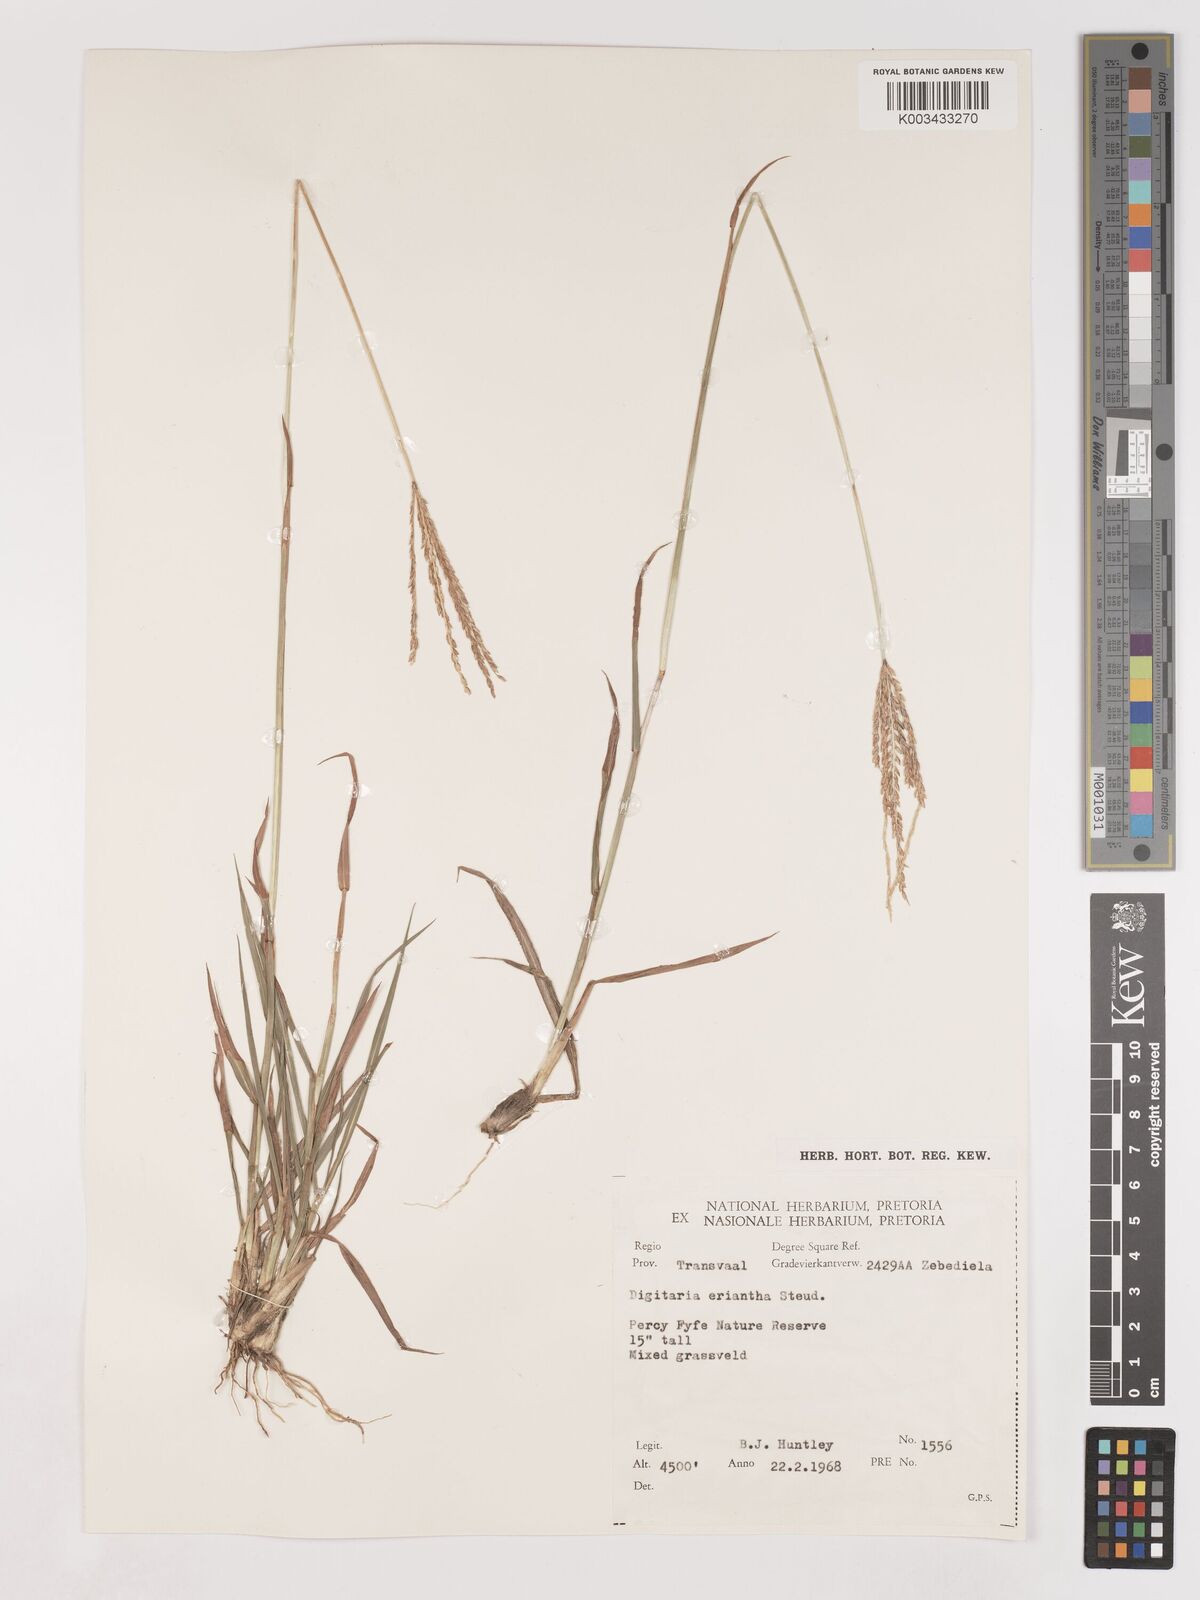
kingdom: Plantae
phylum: Tracheophyta
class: Liliopsida
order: Poales
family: Poaceae
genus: Digitaria
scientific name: Digitaria eriantha
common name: Digitgrass
